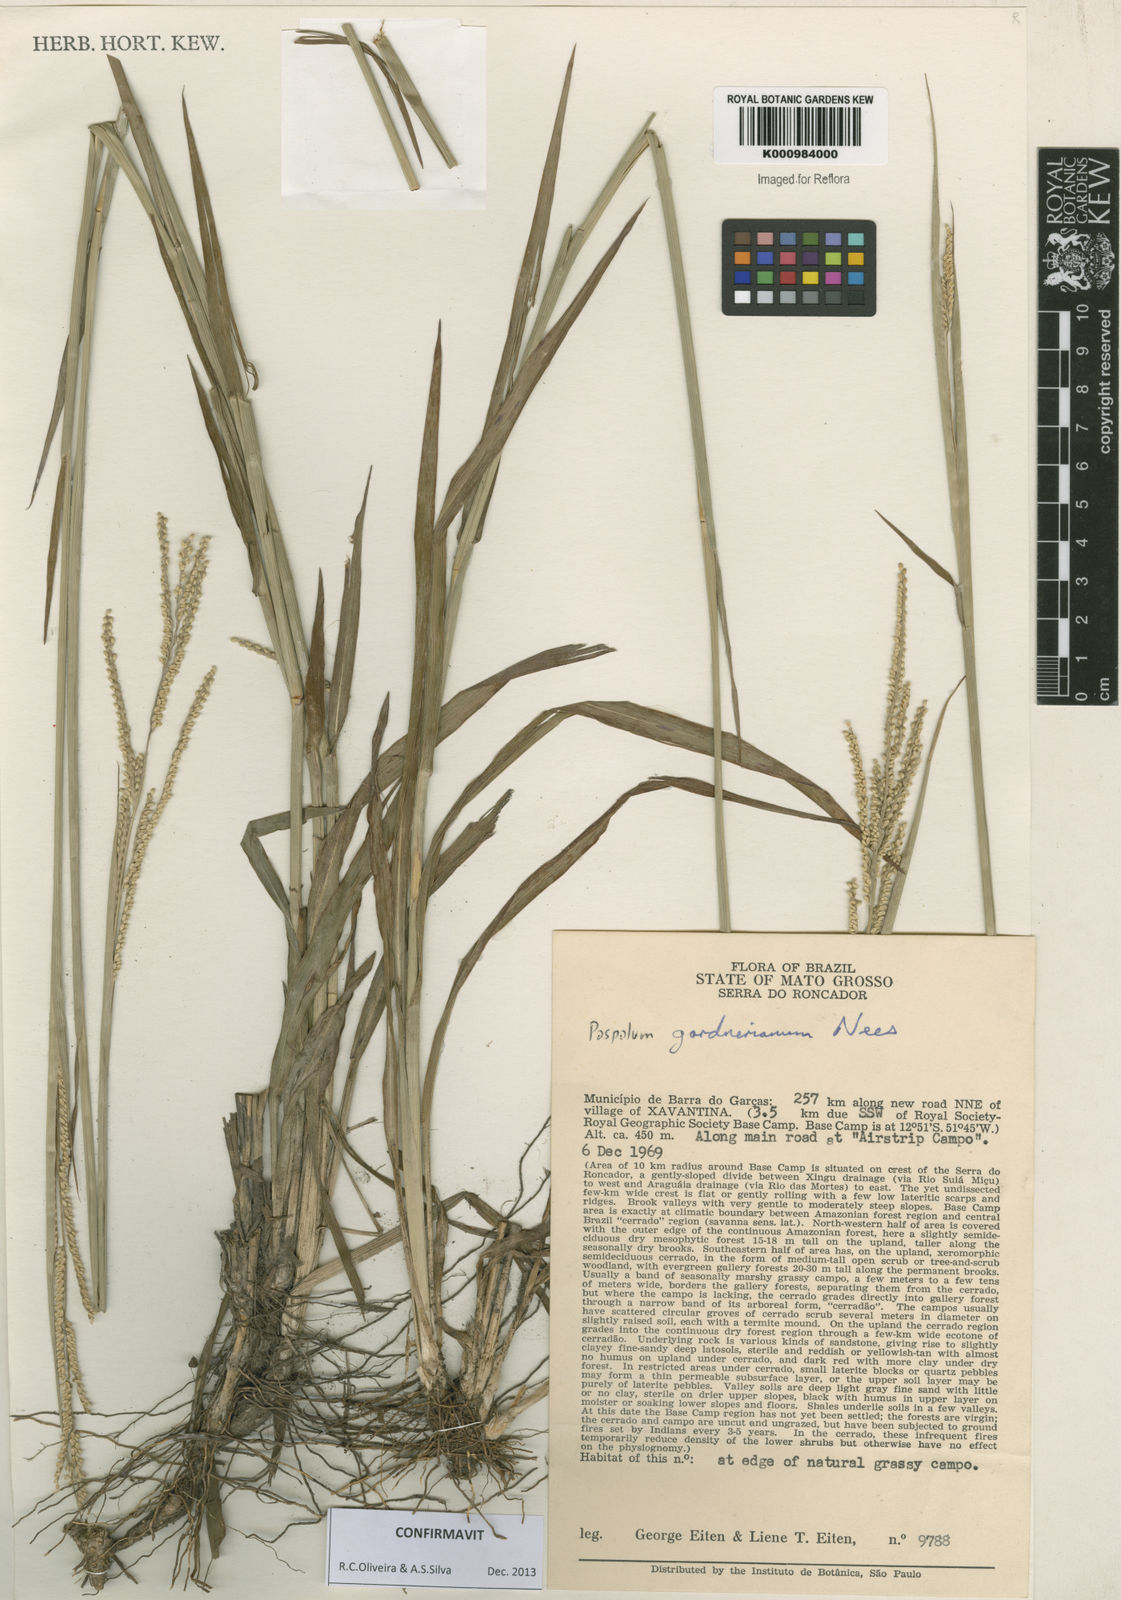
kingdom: Plantae
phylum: Tracheophyta
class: Liliopsida
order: Poales
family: Poaceae
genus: Paspalum
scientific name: Paspalum gardnerianum
